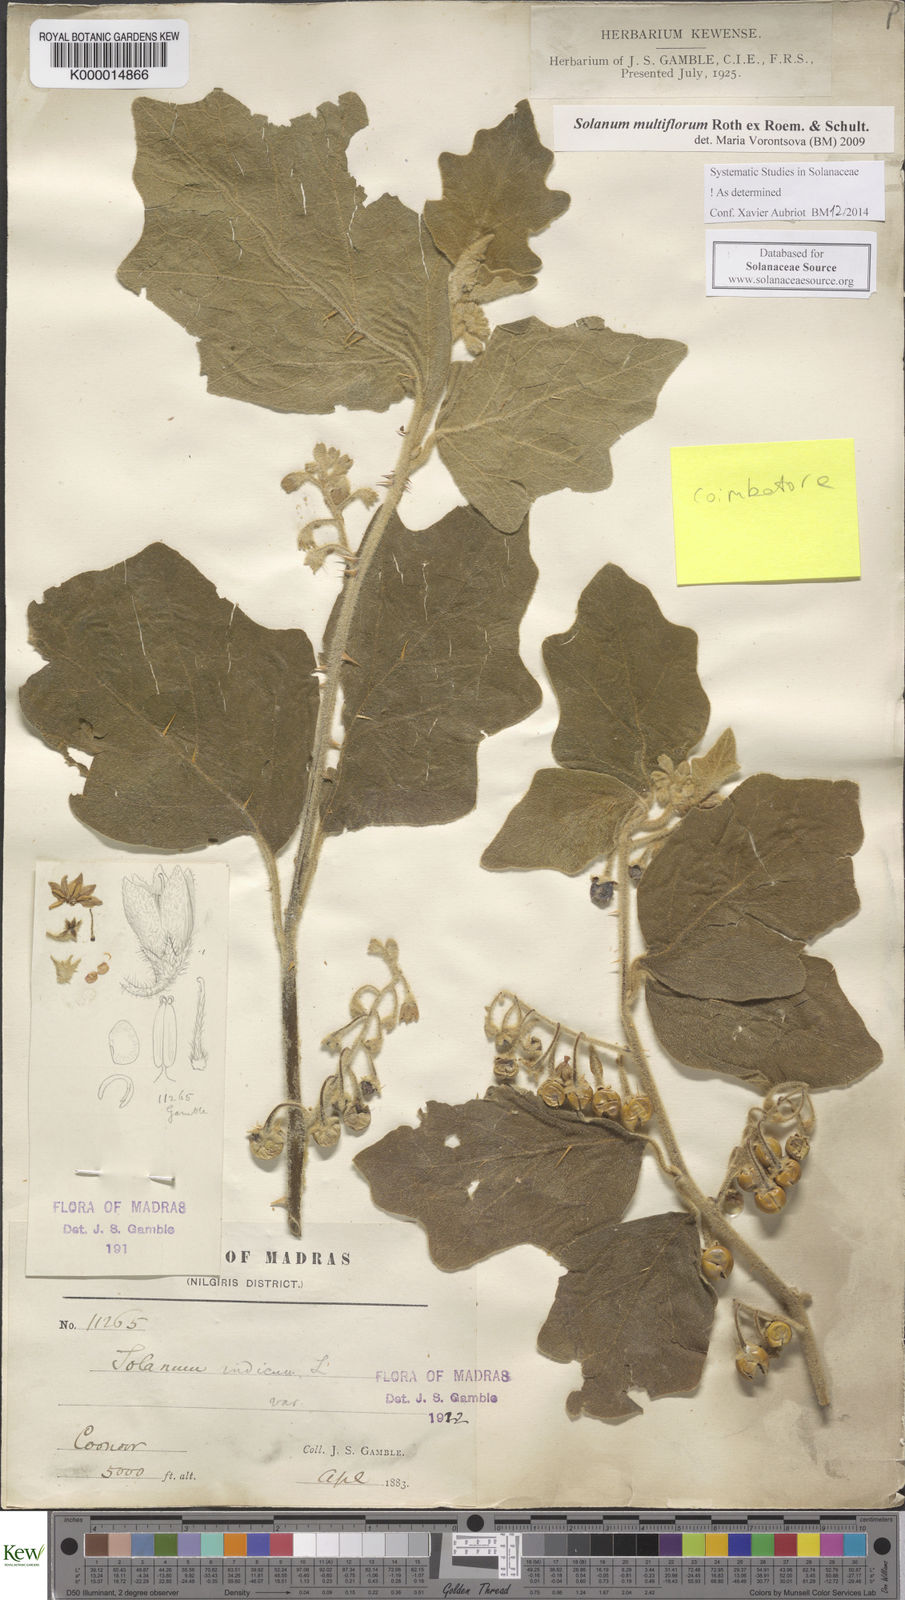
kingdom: Plantae
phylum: Tracheophyta
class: Magnoliopsida
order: Solanales
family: Solanaceae
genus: Solanum
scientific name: Solanum multiflorum
